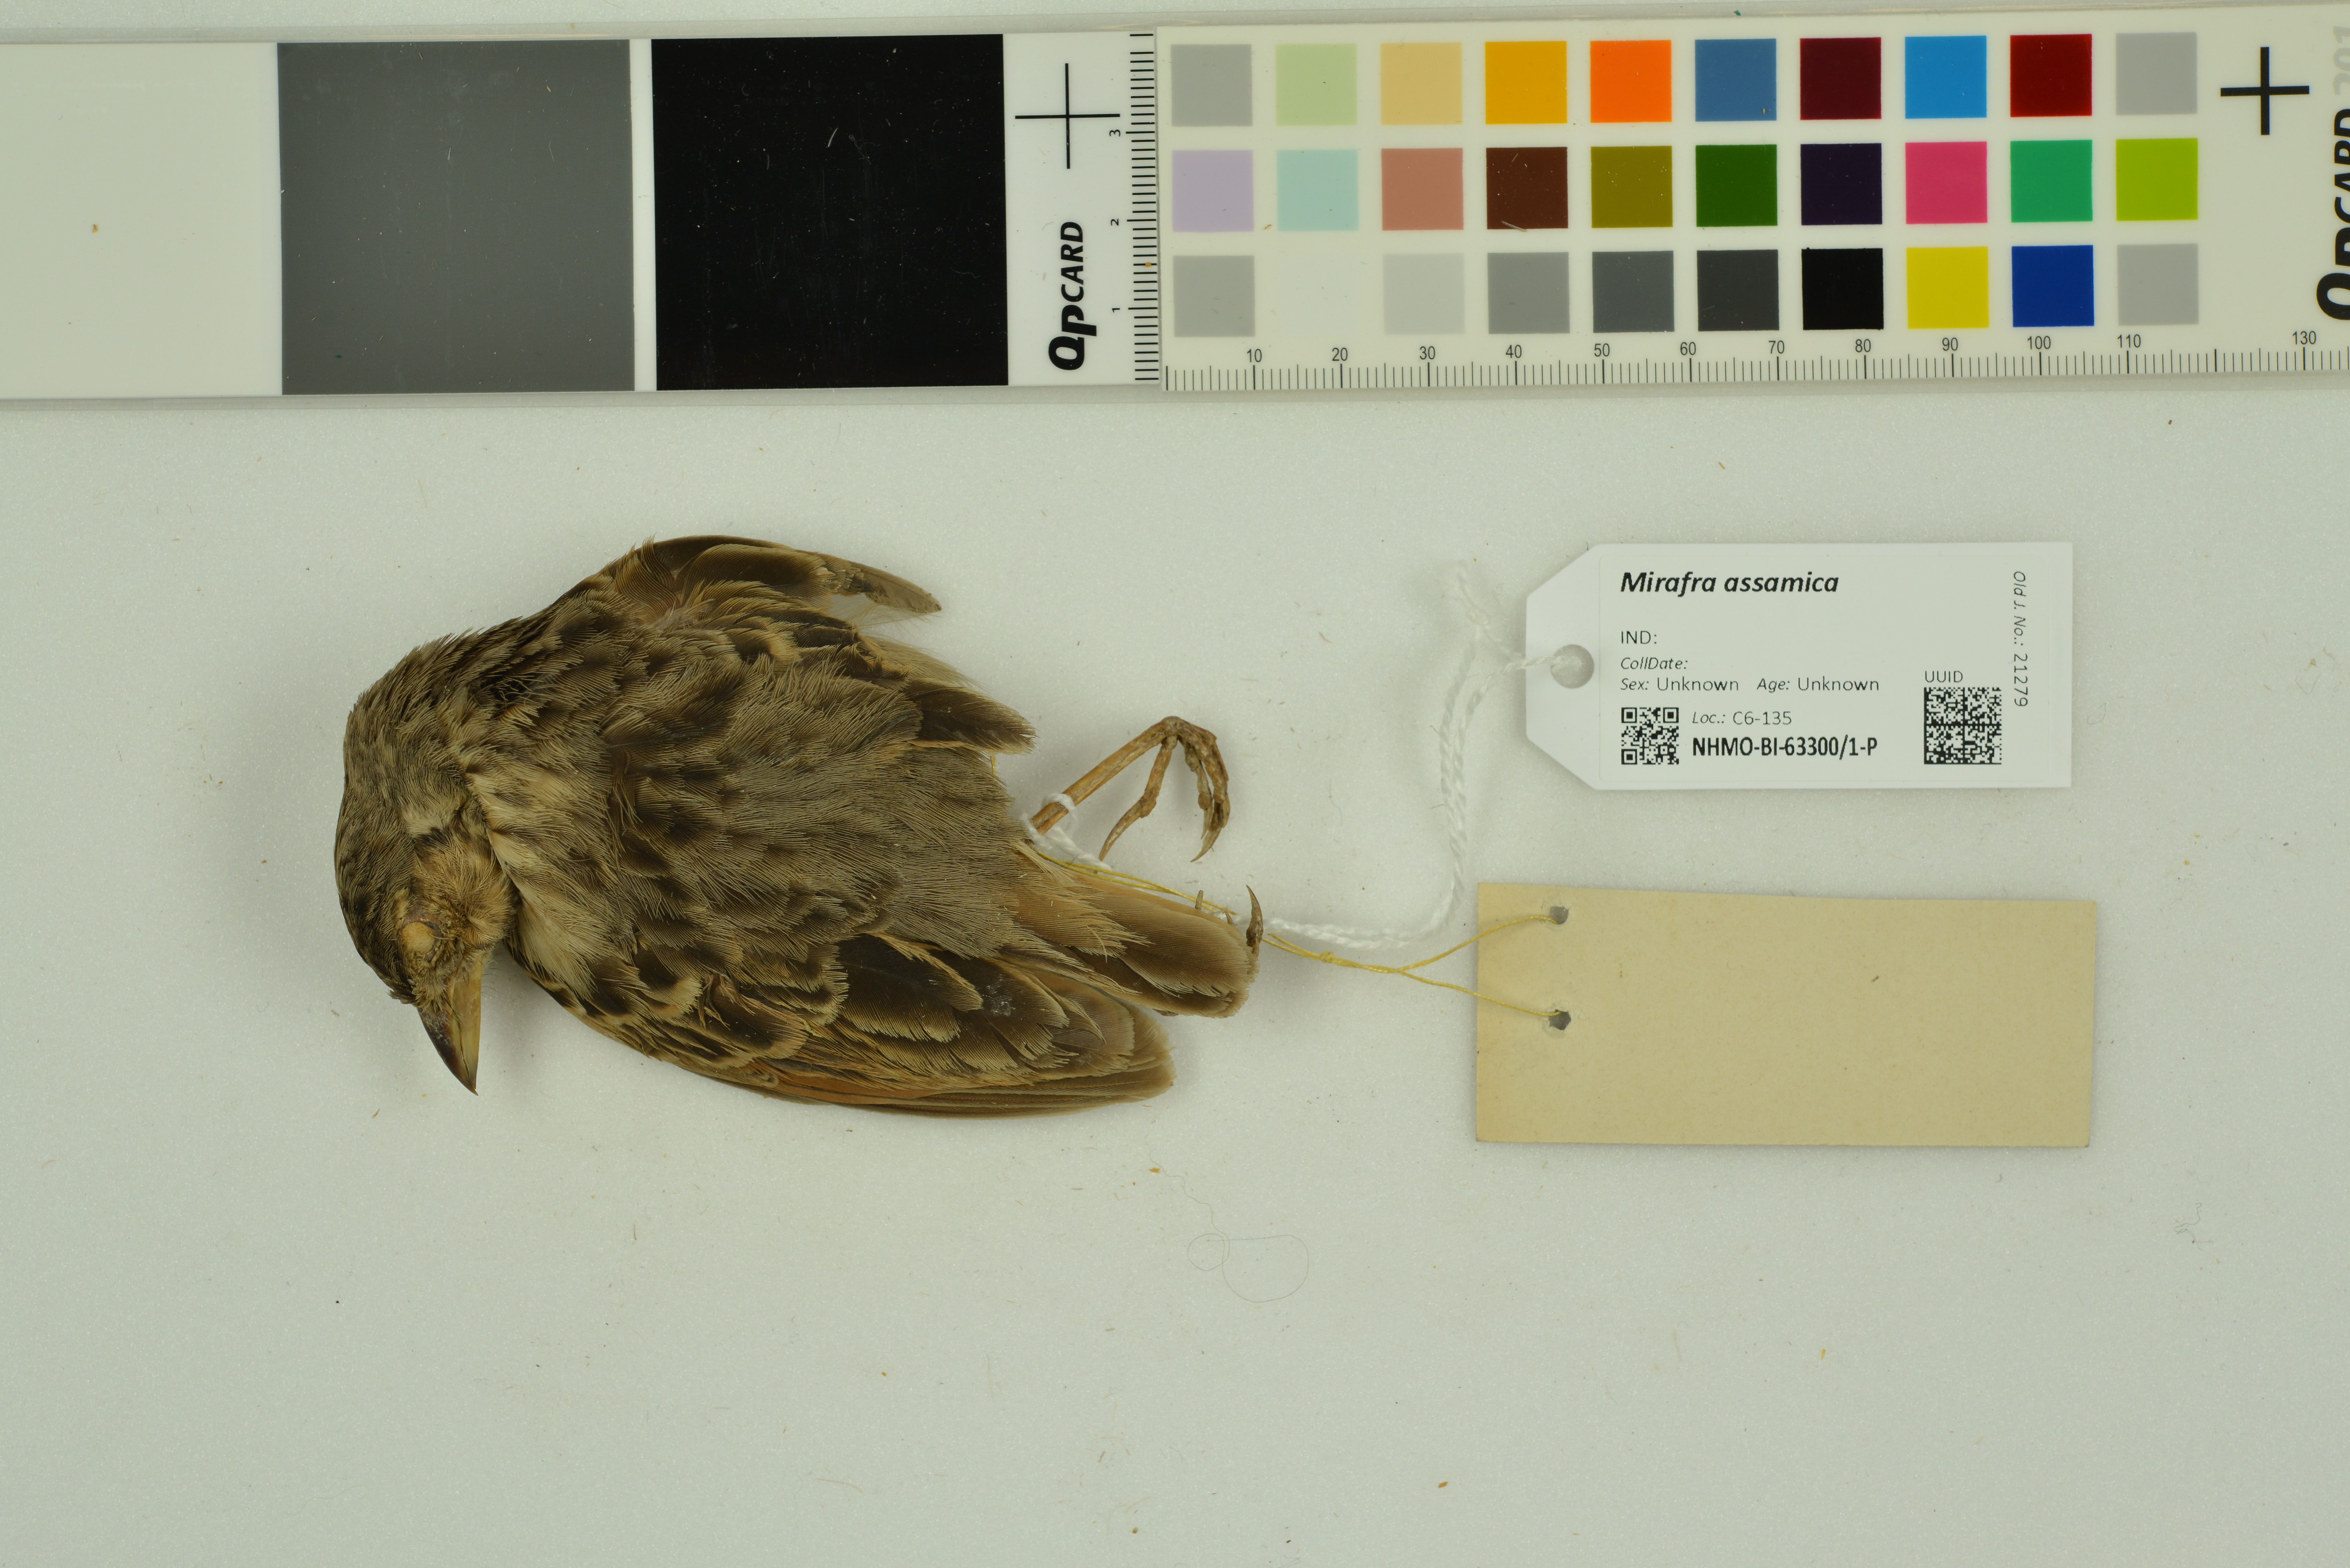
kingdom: Animalia
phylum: Chordata
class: Aves
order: Passeriformes
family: Alaudidae
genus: Mirafra
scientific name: Mirafra assamica
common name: Bengal bush lark
